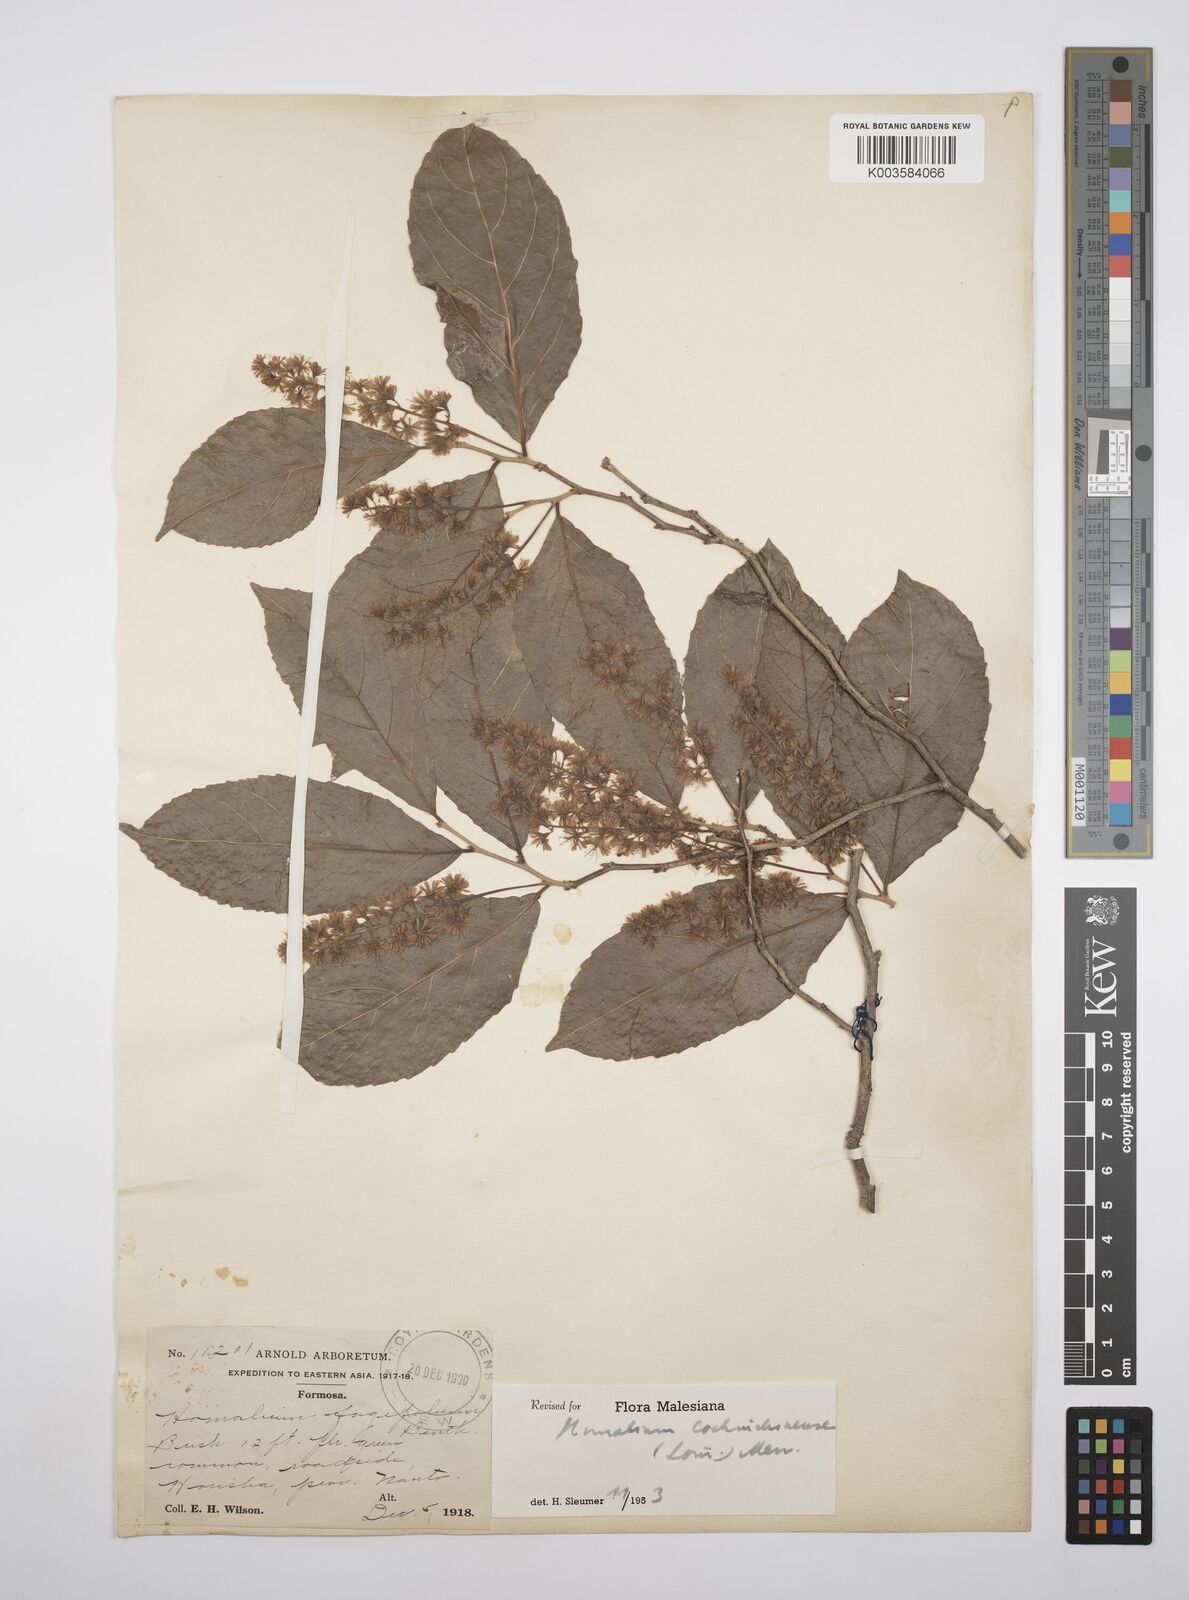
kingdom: Plantae
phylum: Tracheophyta
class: Magnoliopsida
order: Malpighiales
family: Salicaceae
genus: Homalium
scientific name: Homalium cochinchinensis
